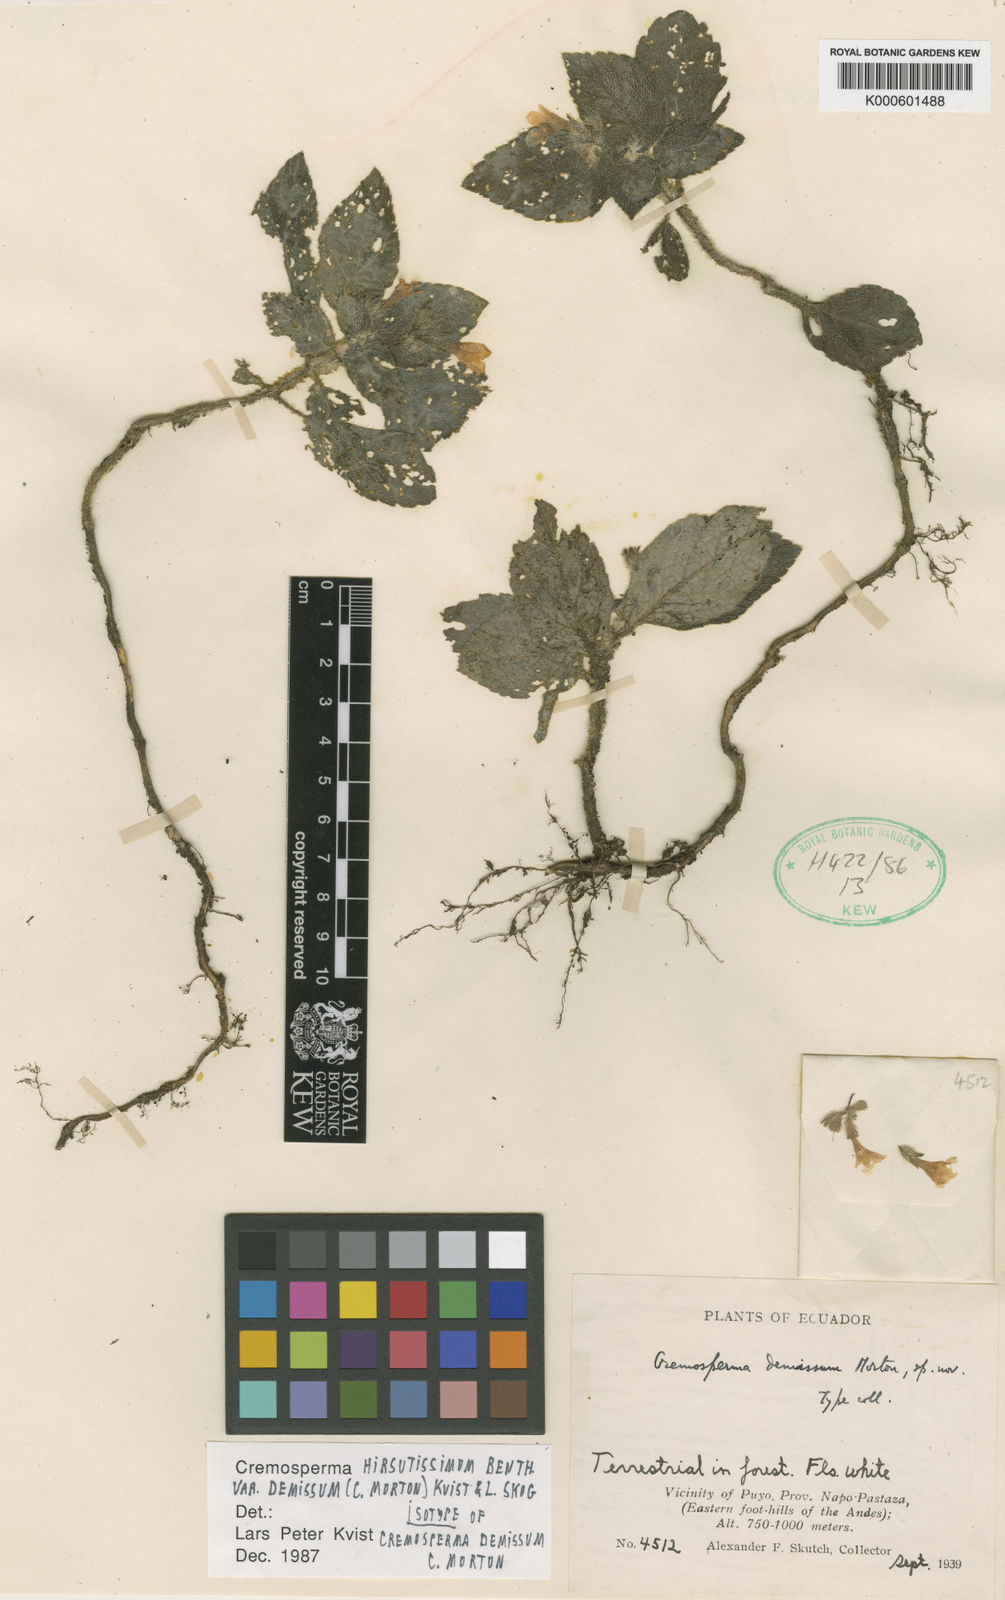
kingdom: Plantae
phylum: Tracheophyta
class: Magnoliopsida
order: Lamiales
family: Gesneriaceae
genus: Cremosperma
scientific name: Cremosperma hirsutissimum
